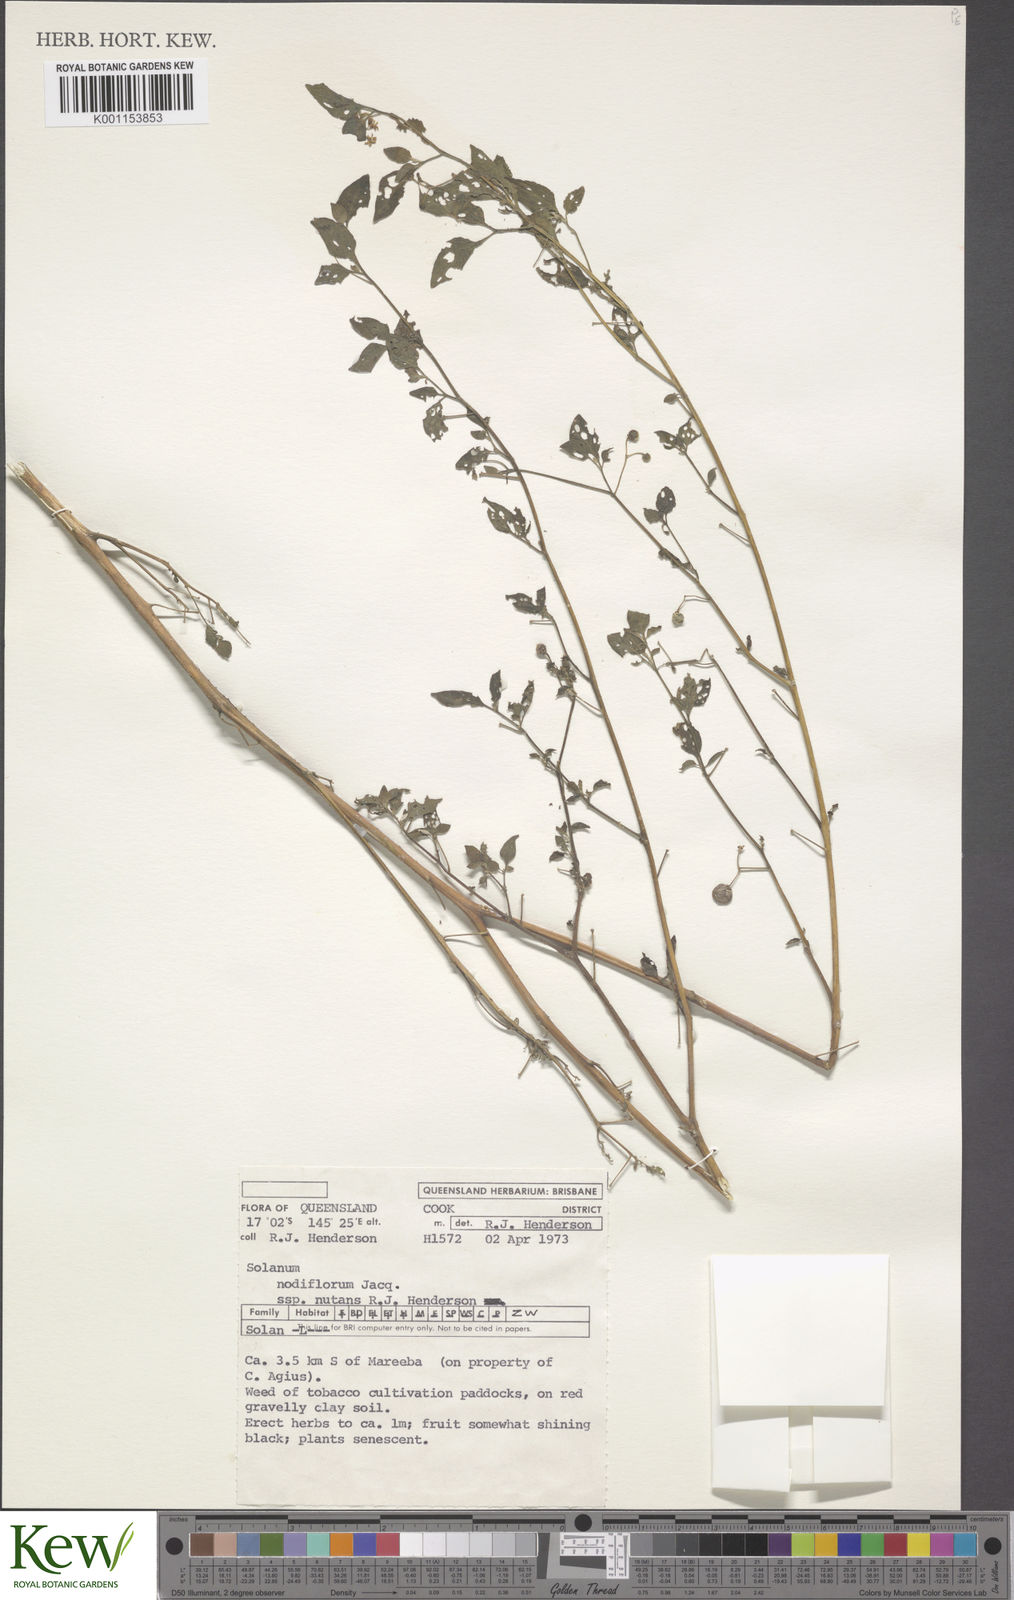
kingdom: Plantae
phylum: Tracheophyta
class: Magnoliopsida
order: Solanales
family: Solanaceae
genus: Solanum
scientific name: Solanum americanum
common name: American black nightshade
